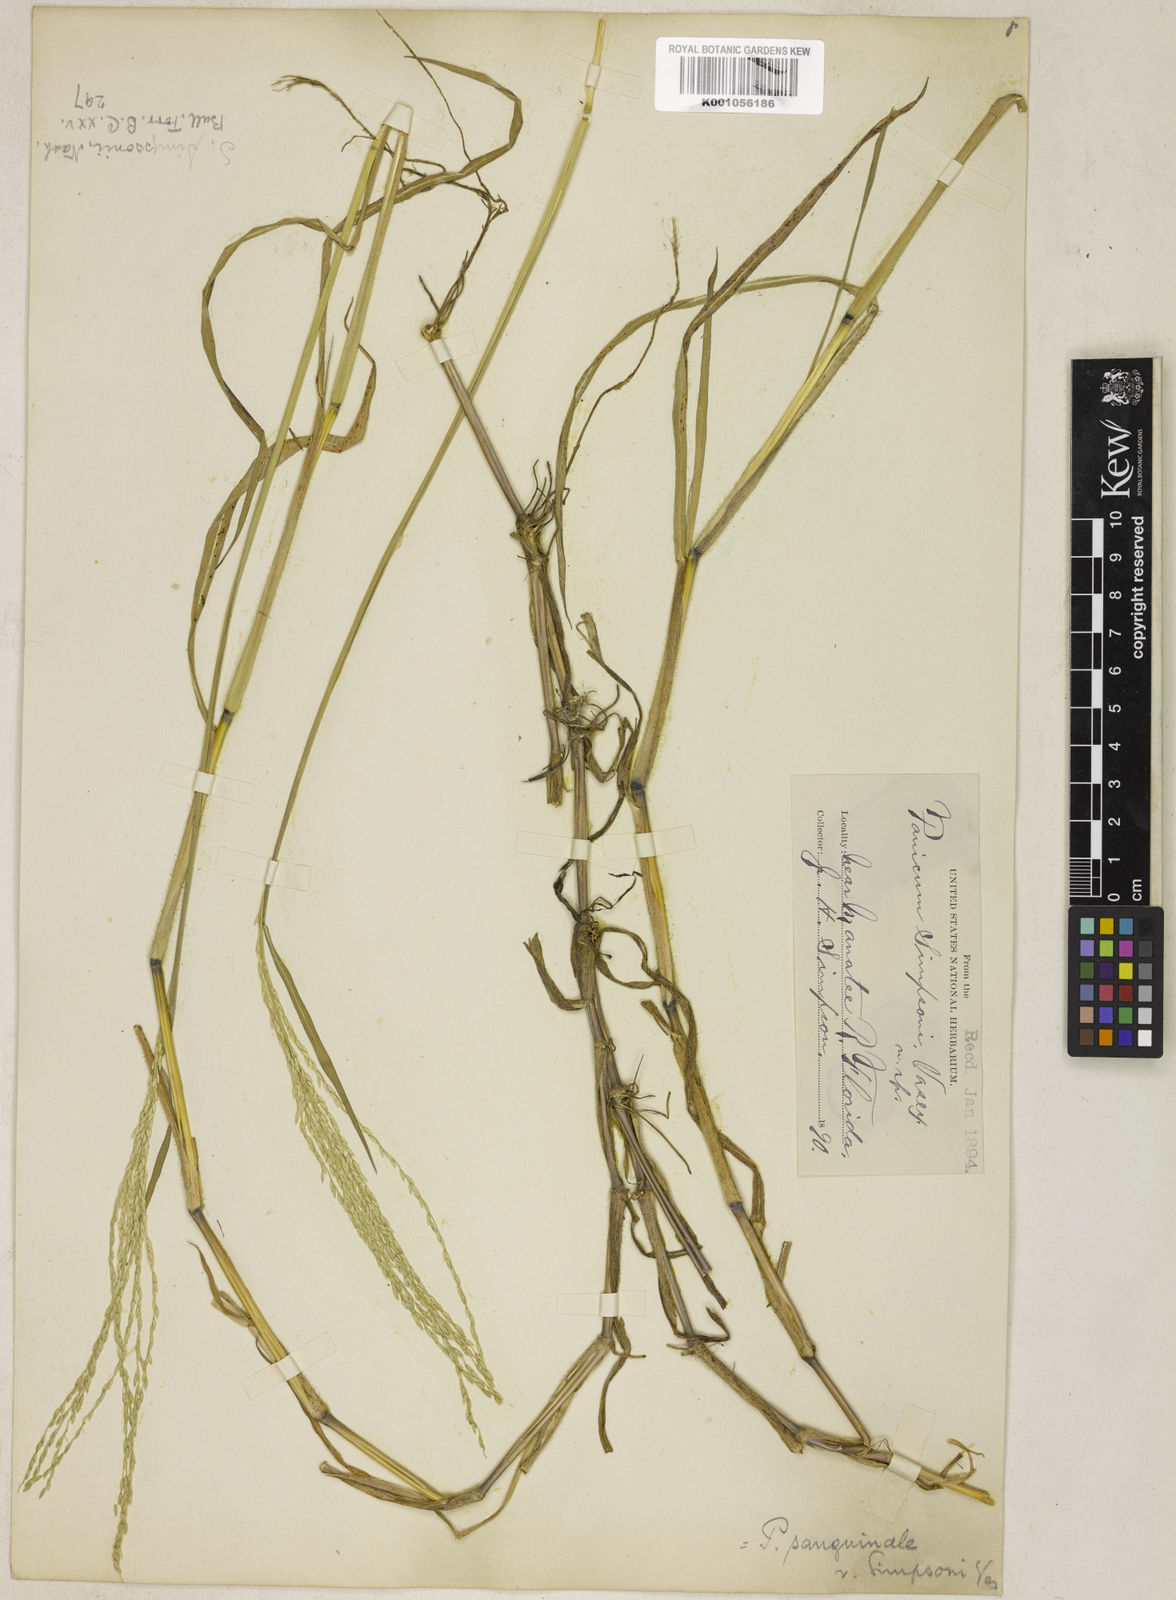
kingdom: Plantae
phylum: Tracheophyta
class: Liliopsida
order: Poales
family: Poaceae
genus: Digitaria
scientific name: Digitaria simpsonii
